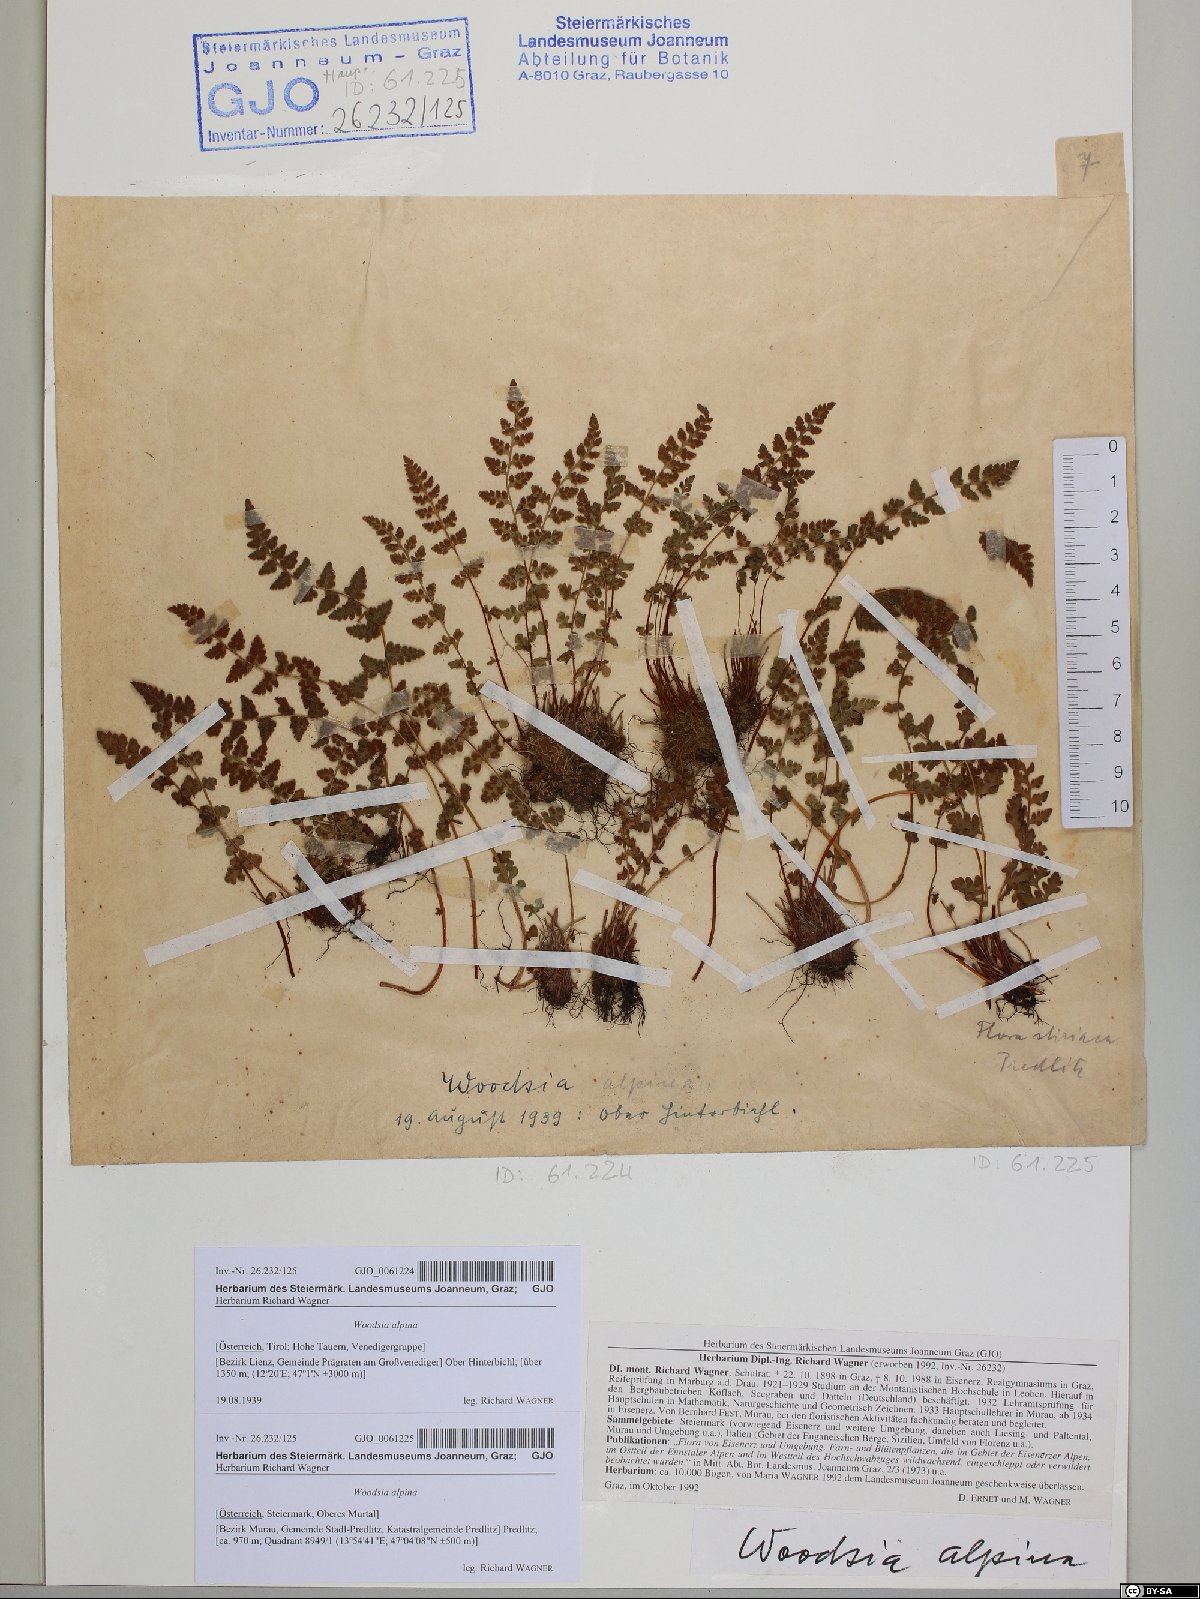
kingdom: Plantae
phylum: Tracheophyta
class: Polypodiopsida
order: Polypodiales
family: Woodsiaceae
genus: Woodsia
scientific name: Woodsia alpina
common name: Alpine woodsia
